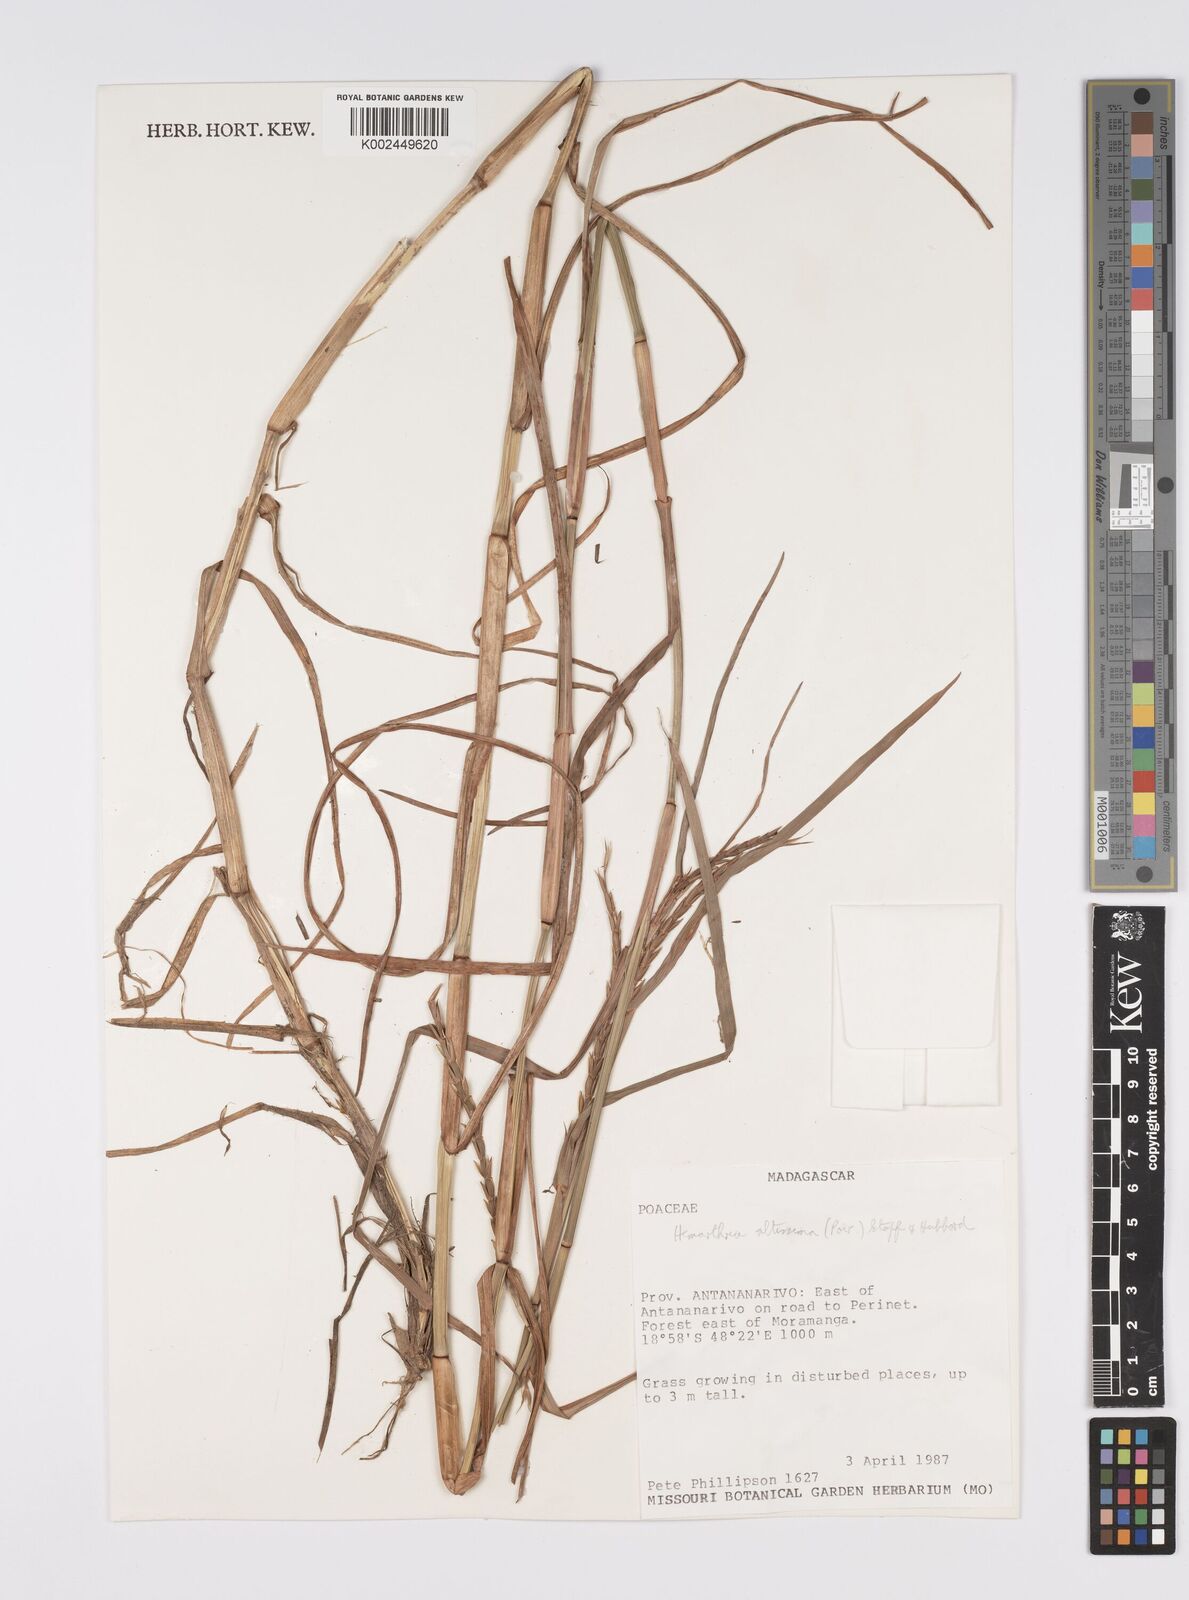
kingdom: Plantae
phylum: Tracheophyta
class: Liliopsida
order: Poales
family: Poaceae
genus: Hemarthria
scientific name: Hemarthria altissima
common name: African jointgrass
